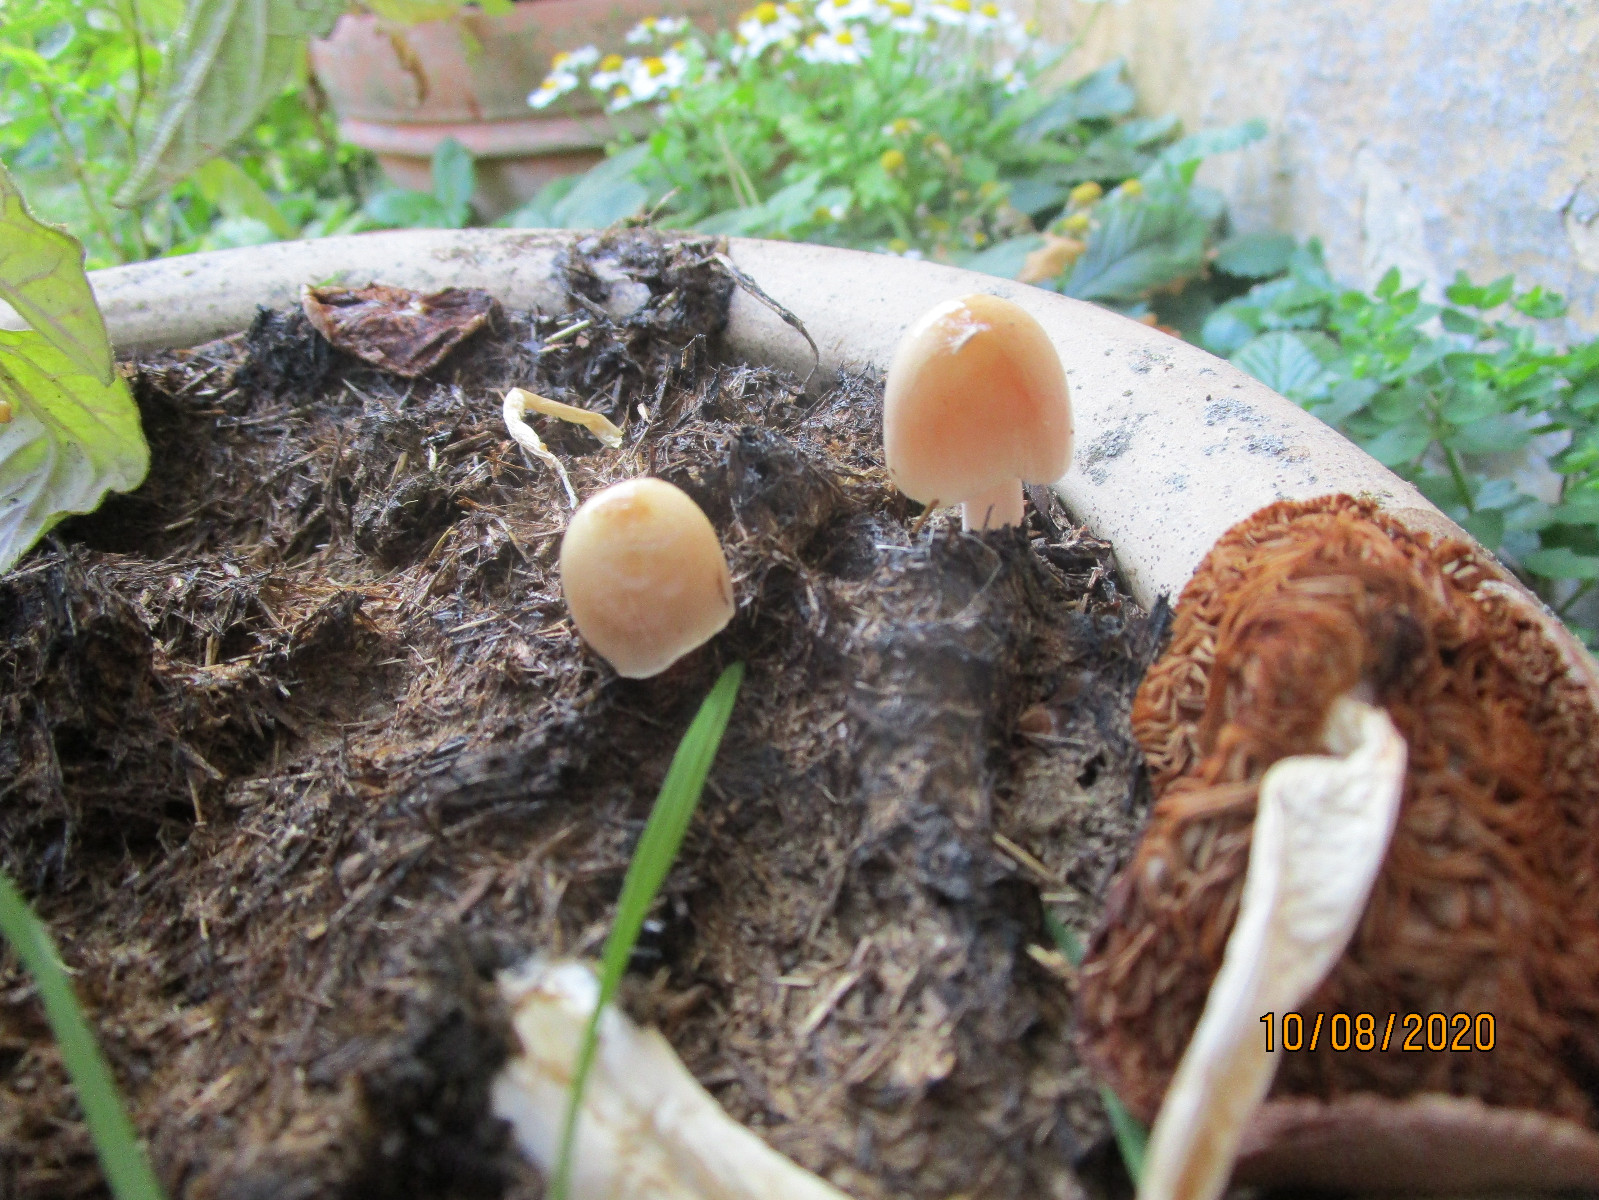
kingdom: Fungi
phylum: Basidiomycota
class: Agaricomycetes
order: Agaricales
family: Bolbitiaceae
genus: Bolbitius
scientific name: Bolbitius coprophilus
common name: rosa gulhat
